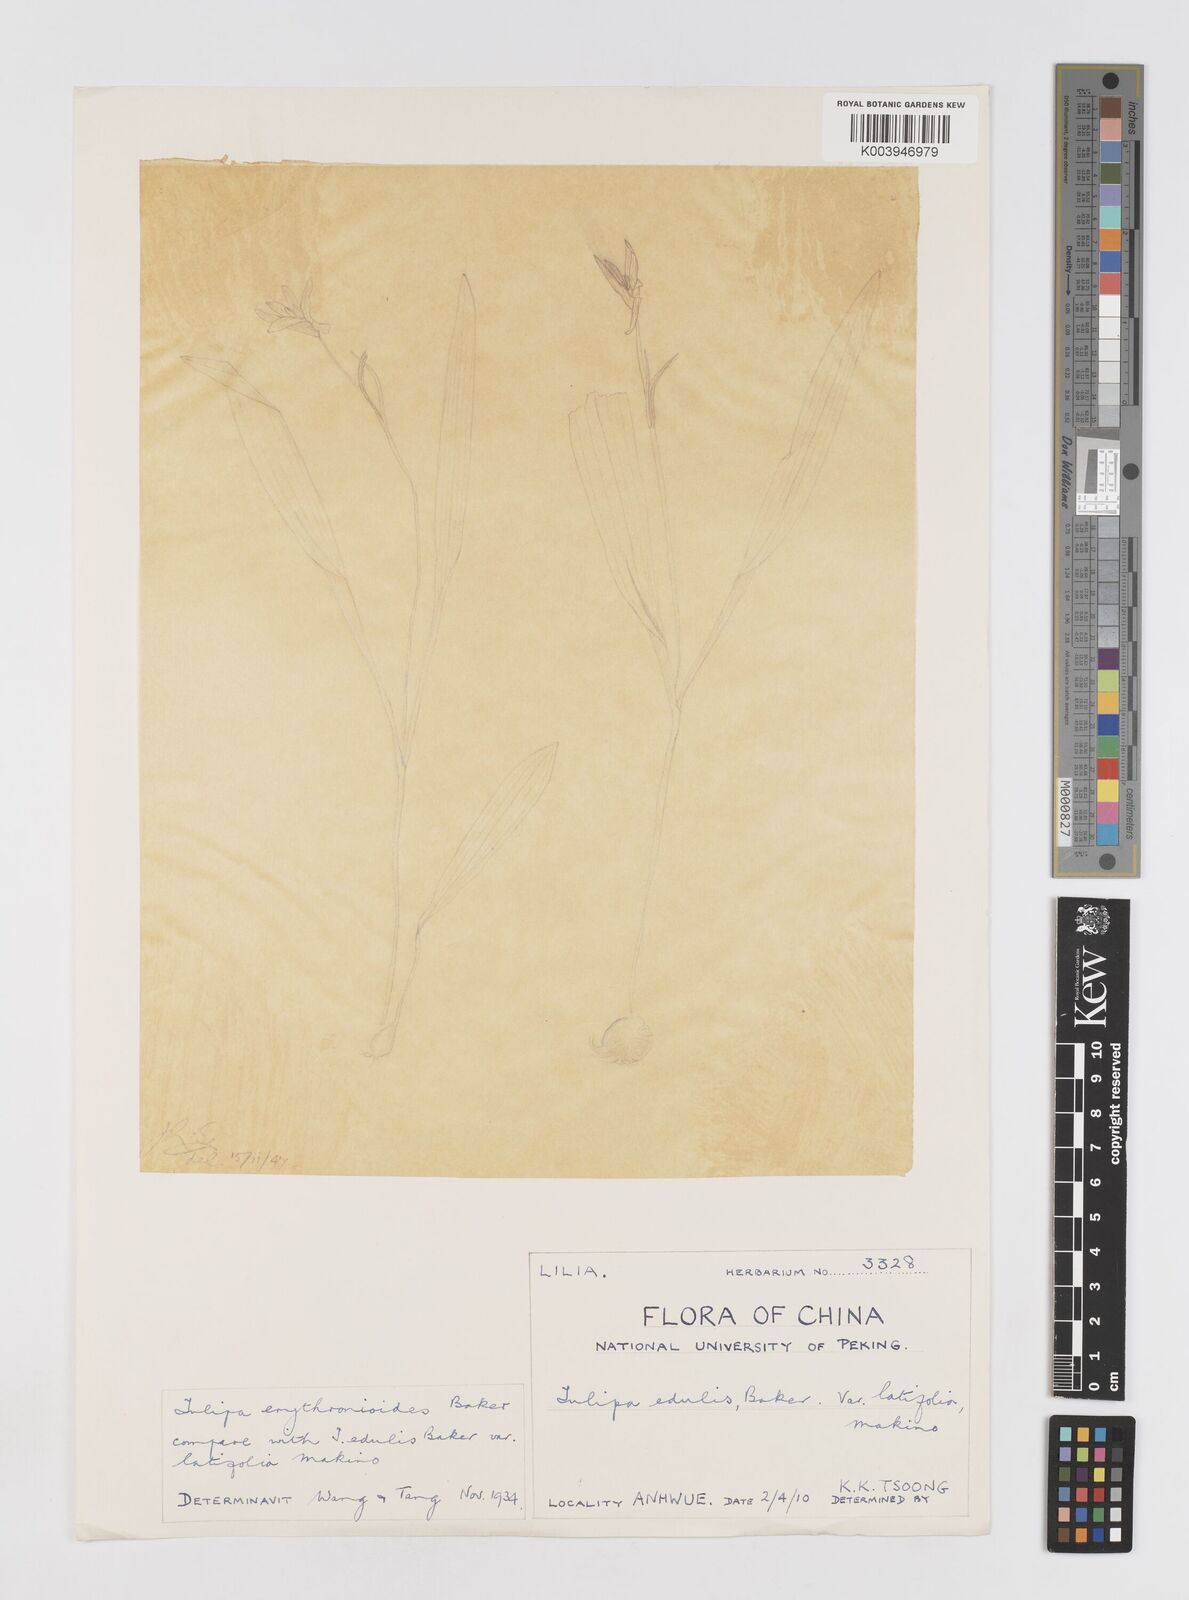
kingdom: Plantae
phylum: Tracheophyta
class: Liliopsida
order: Liliales
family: Liliaceae
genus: Amana
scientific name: Amana erythronioides
